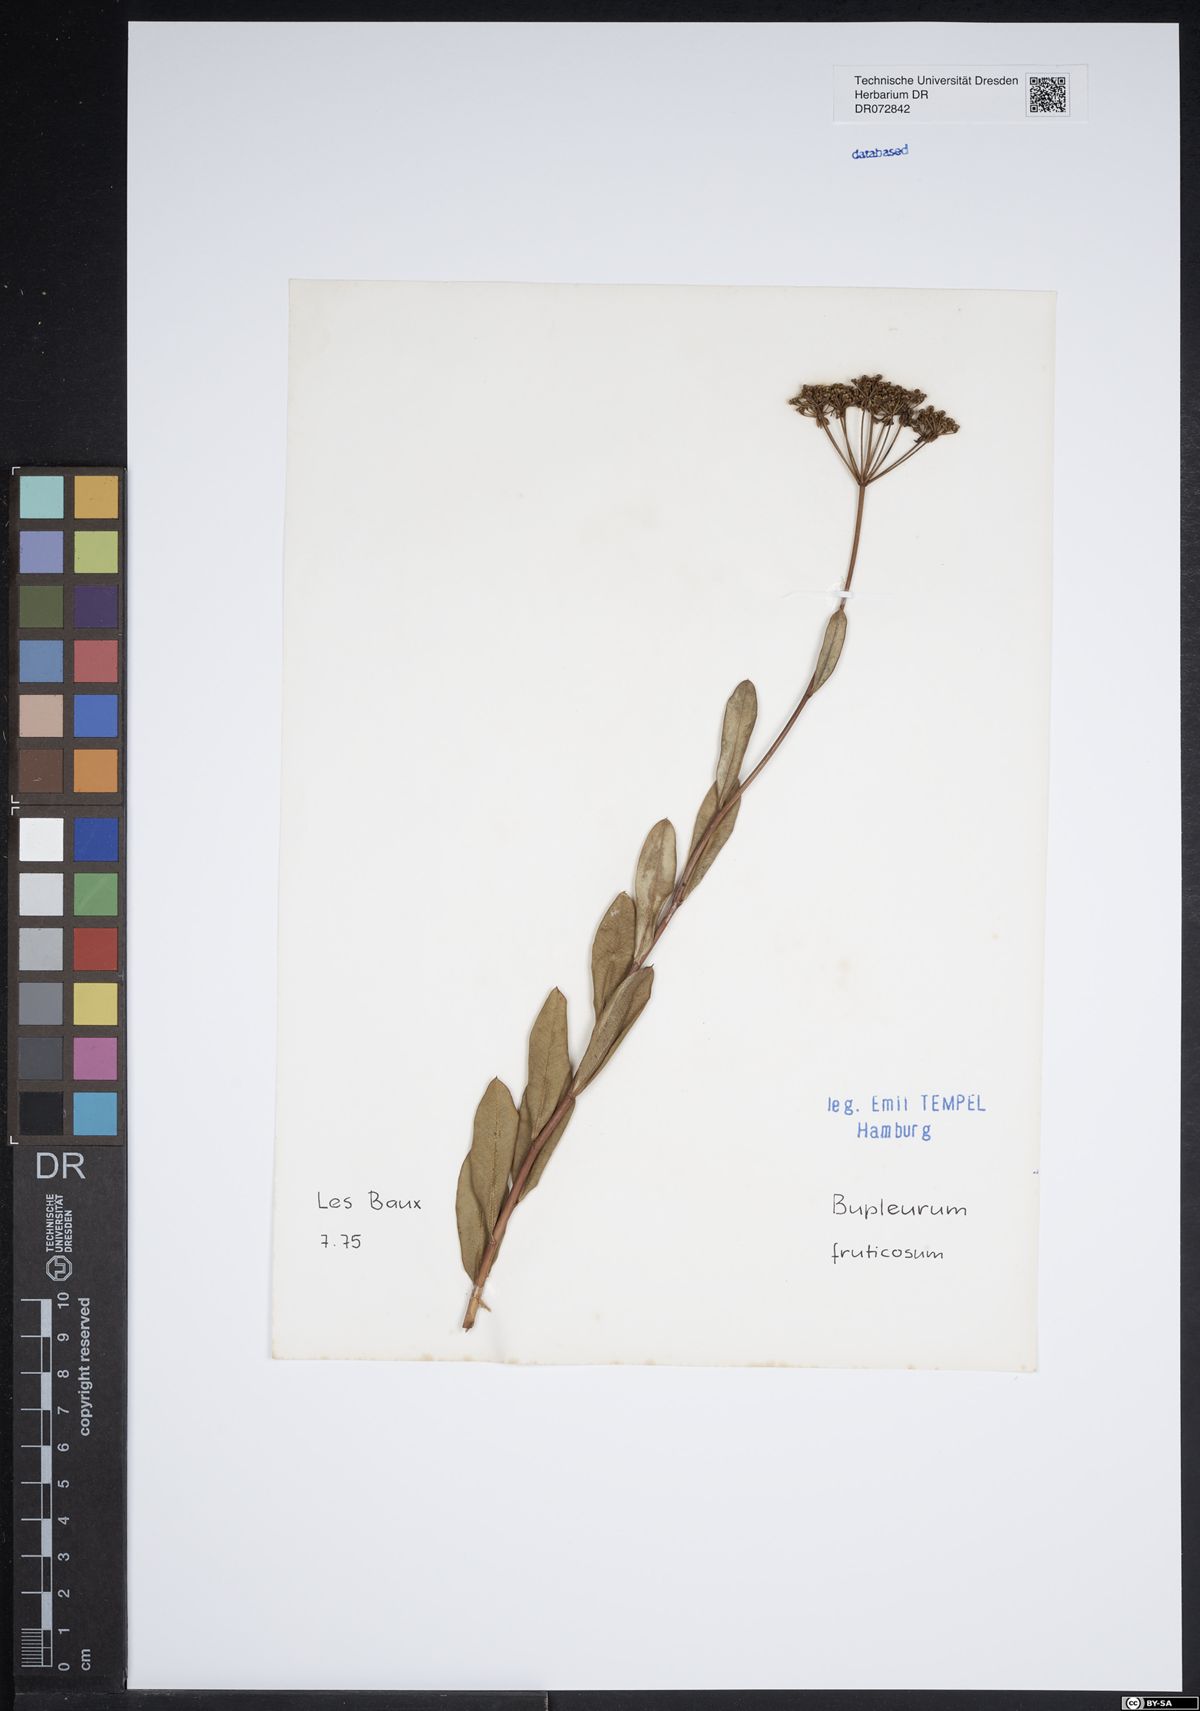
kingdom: Plantae
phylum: Tracheophyta
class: Magnoliopsida
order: Apiales
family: Apiaceae
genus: Bupleurum
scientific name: Bupleurum fruticosum
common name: Shrubby hare's-ear
